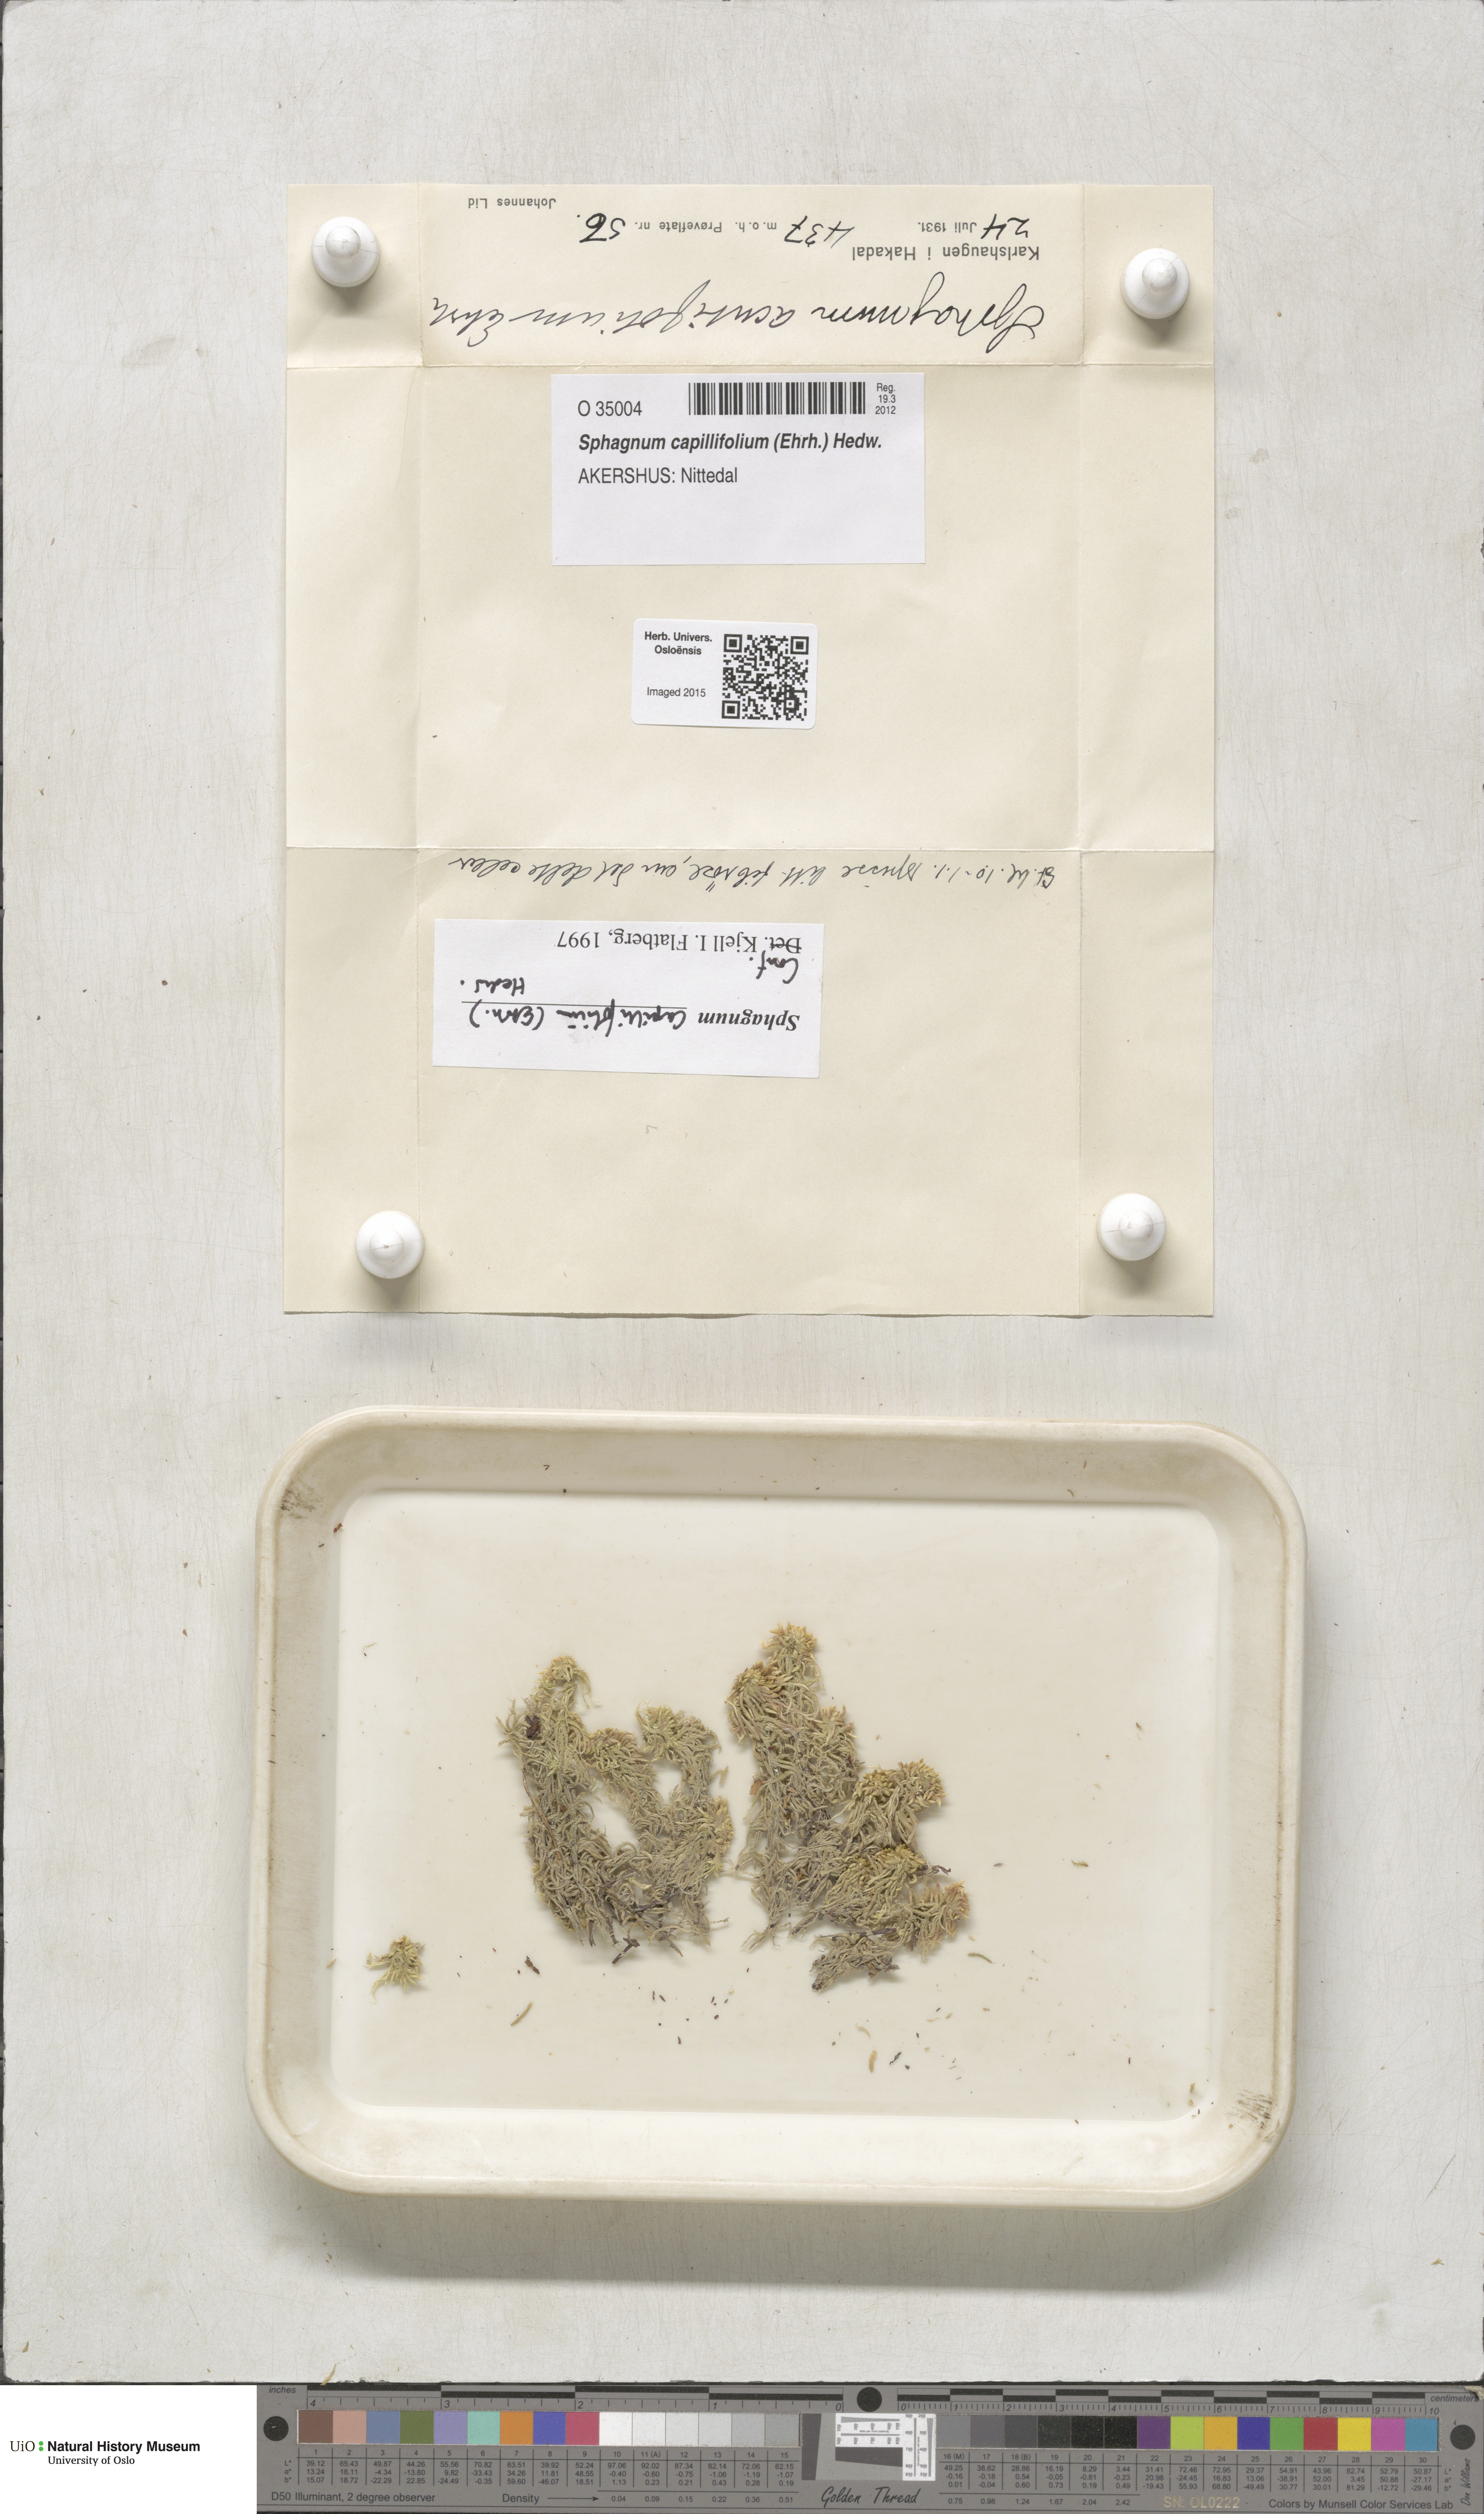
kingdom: Plantae
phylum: Bryophyta
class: Sphagnopsida
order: Sphagnales
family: Sphagnaceae
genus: Sphagnum
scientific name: Sphagnum capillifolium
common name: Small red peat moss
